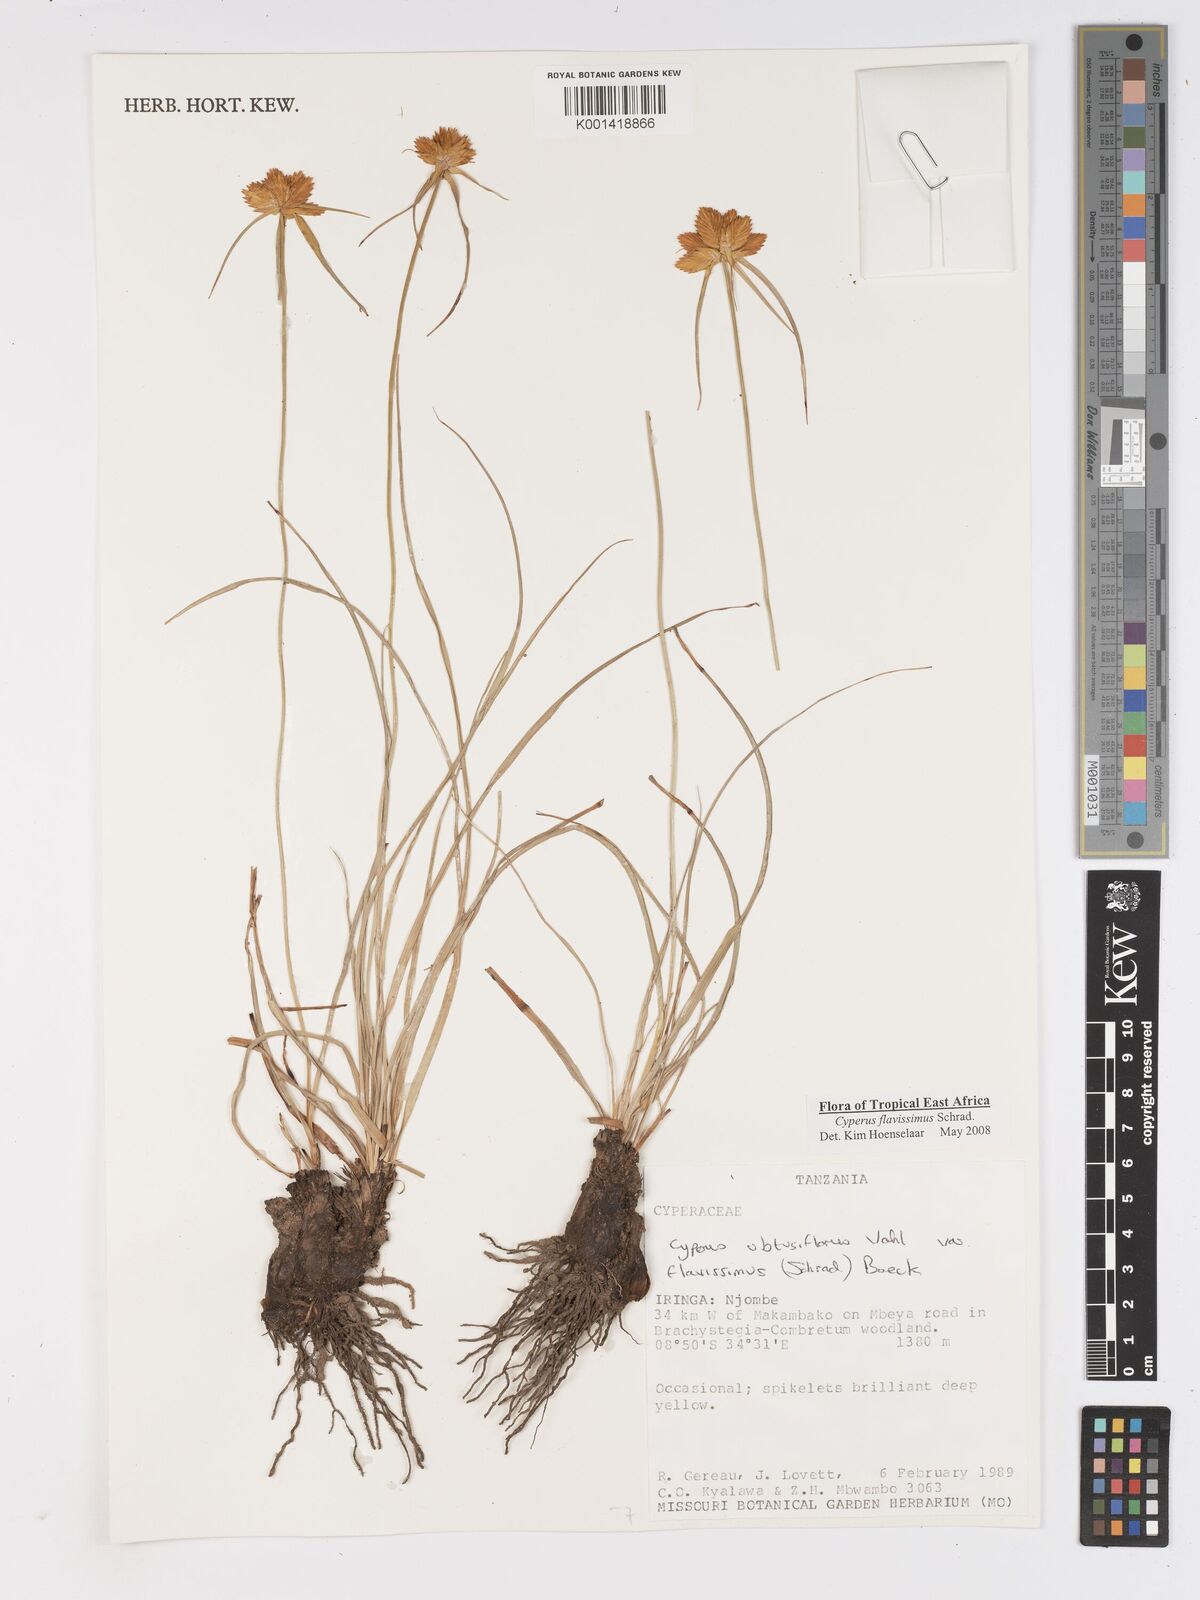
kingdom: Plantae
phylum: Tracheophyta
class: Liliopsida
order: Poales
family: Cyperaceae
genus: Cyperus
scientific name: Cyperus sphaerocephalus
